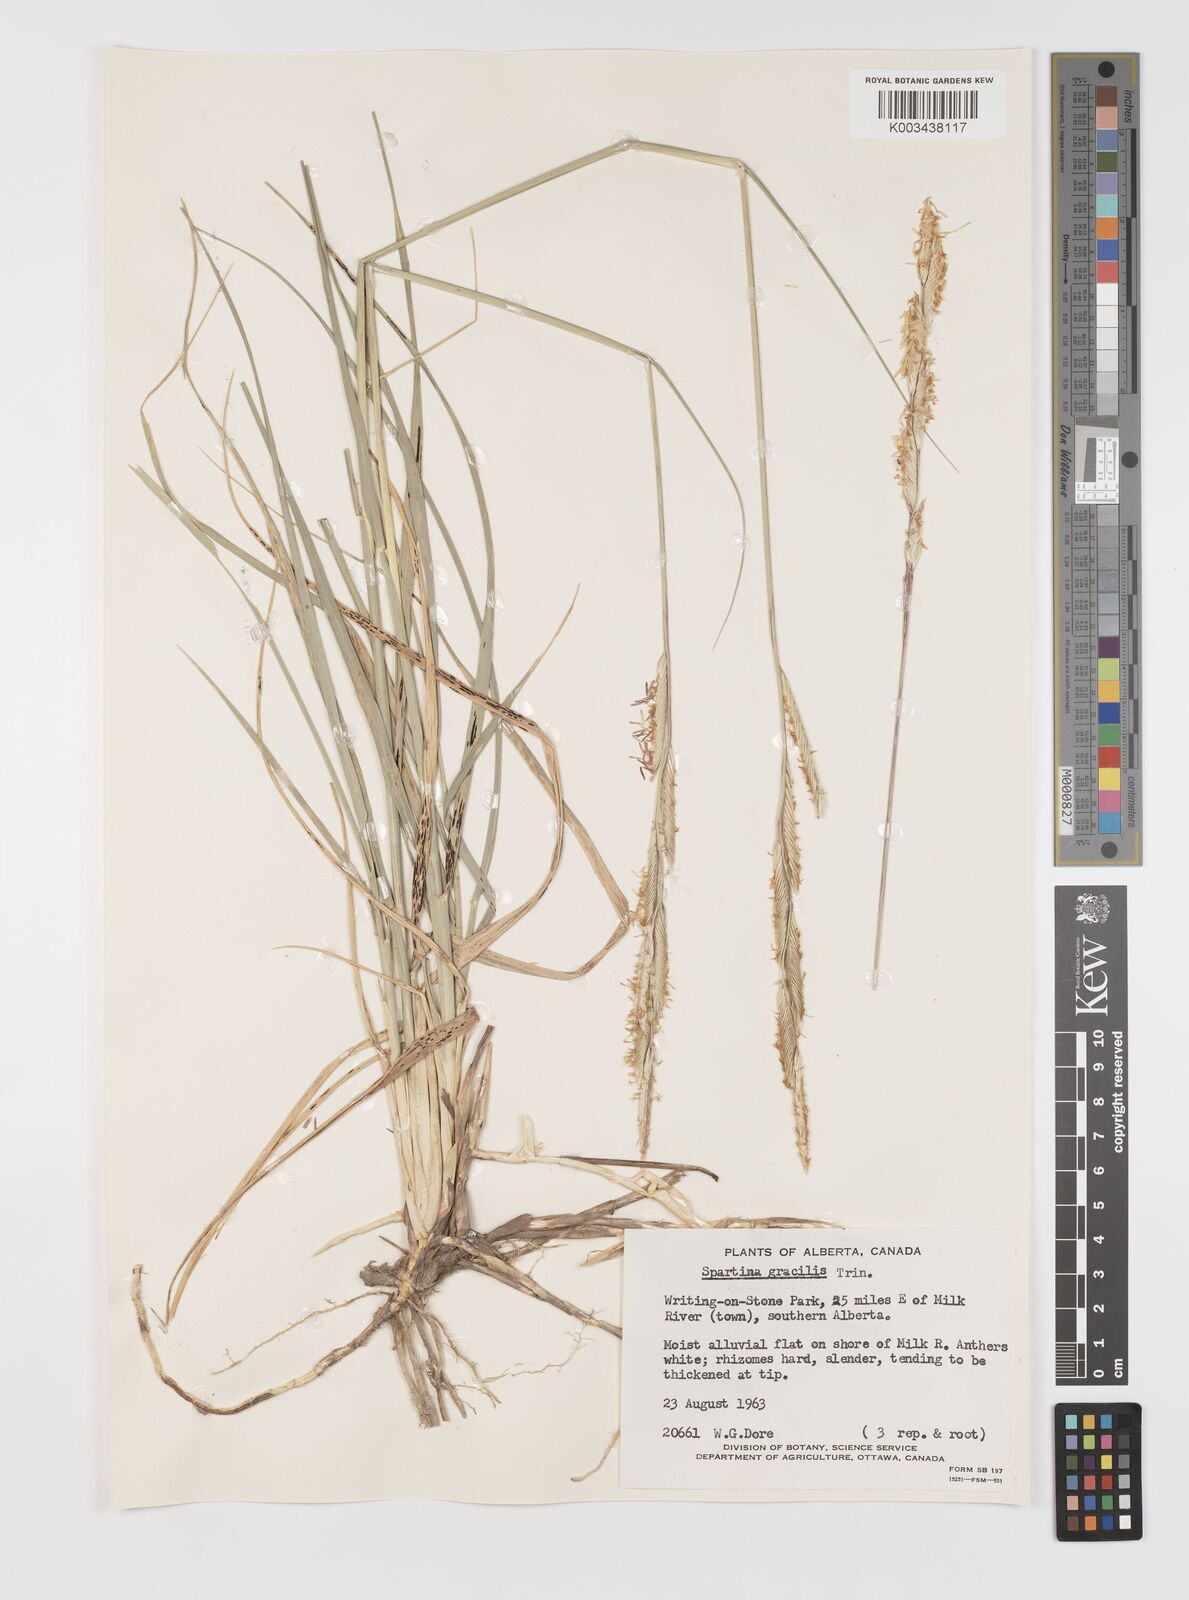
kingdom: Plantae
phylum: Tracheophyta
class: Liliopsida
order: Poales
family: Poaceae
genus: Sporobolus
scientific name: Sporobolus hookerianus
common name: Alkali cordgrass
